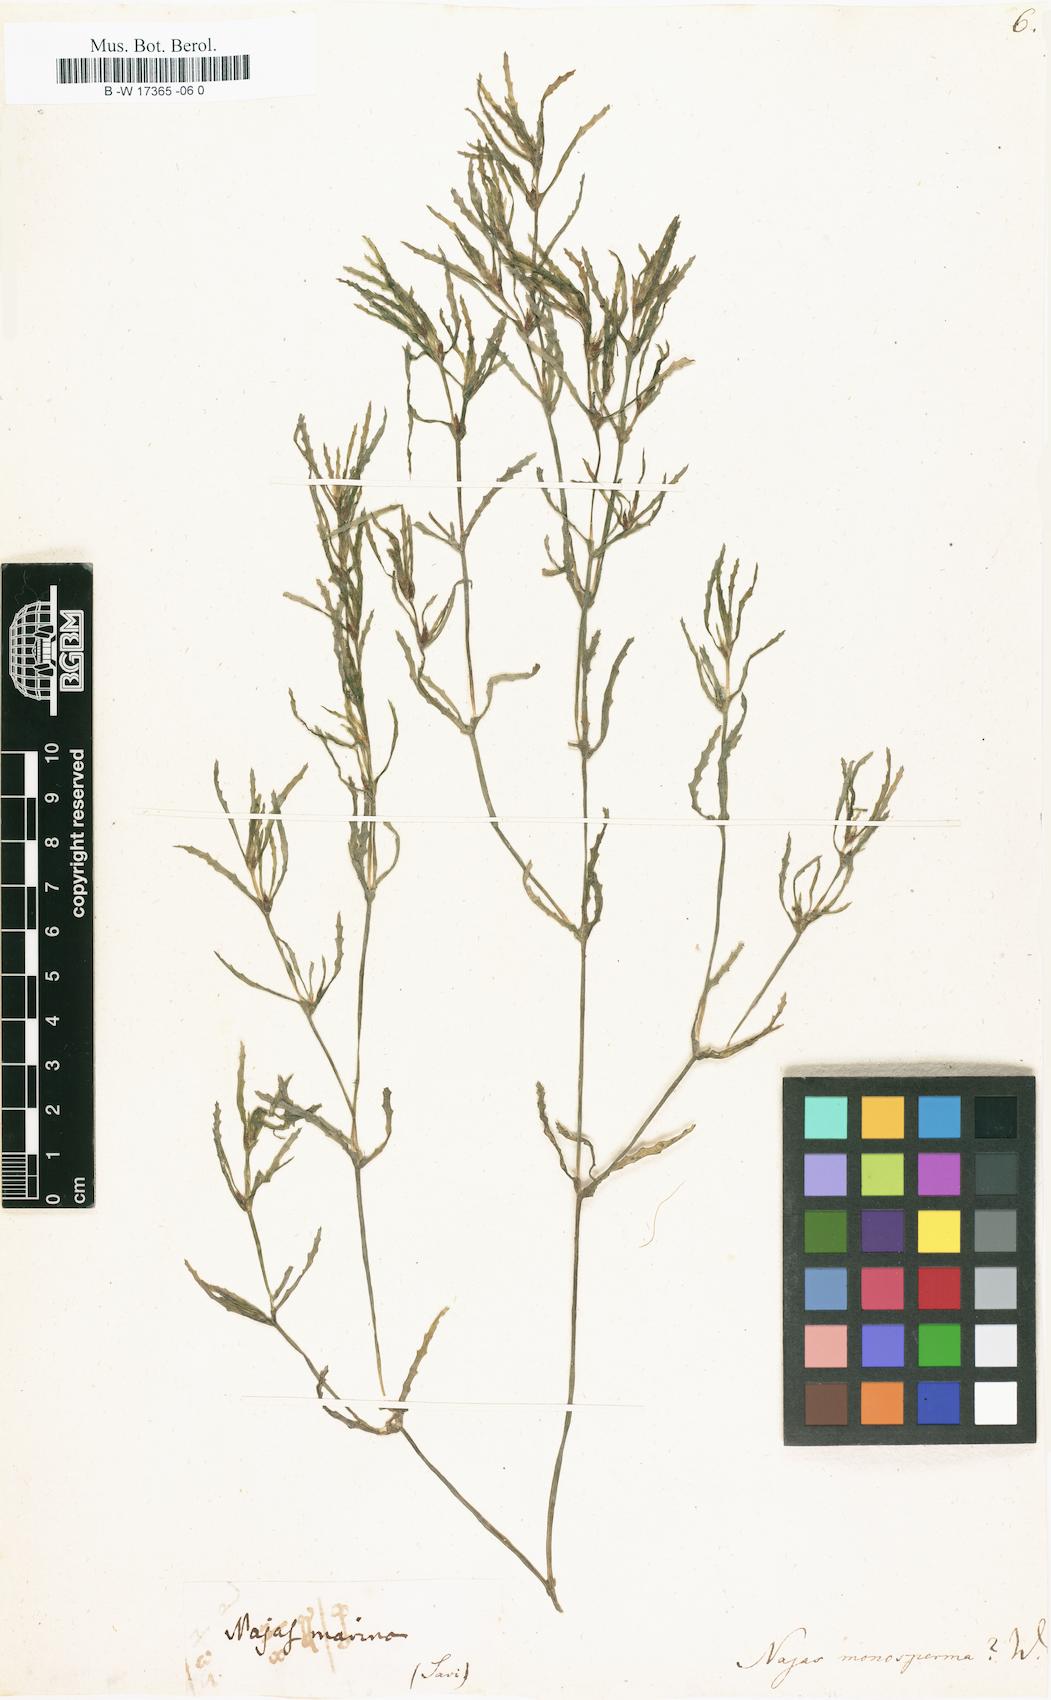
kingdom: Plantae
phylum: Tracheophyta
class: Liliopsida
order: Alismatales
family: Hydrocharitaceae
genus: Najas
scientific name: Najas major
